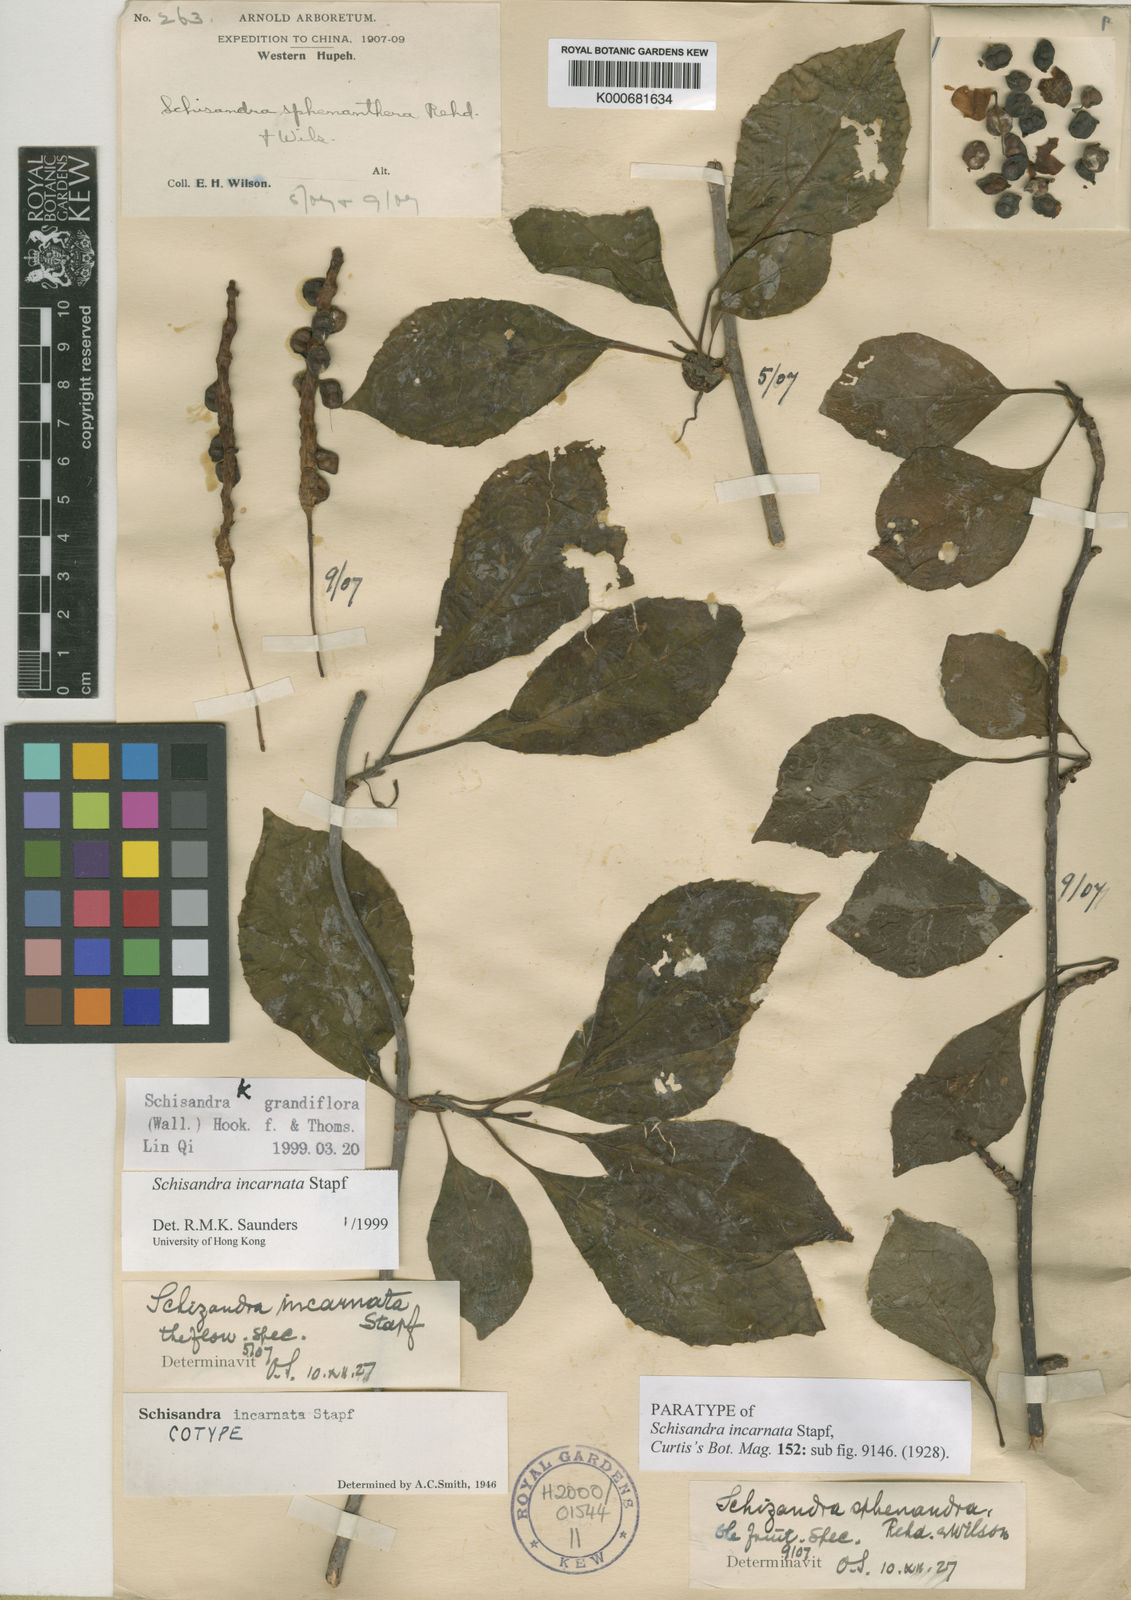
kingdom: Plantae
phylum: Tracheophyta
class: Magnoliopsida
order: Austrobaileyales
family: Schisandraceae
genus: Schisandra
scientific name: Schisandra incarnata
